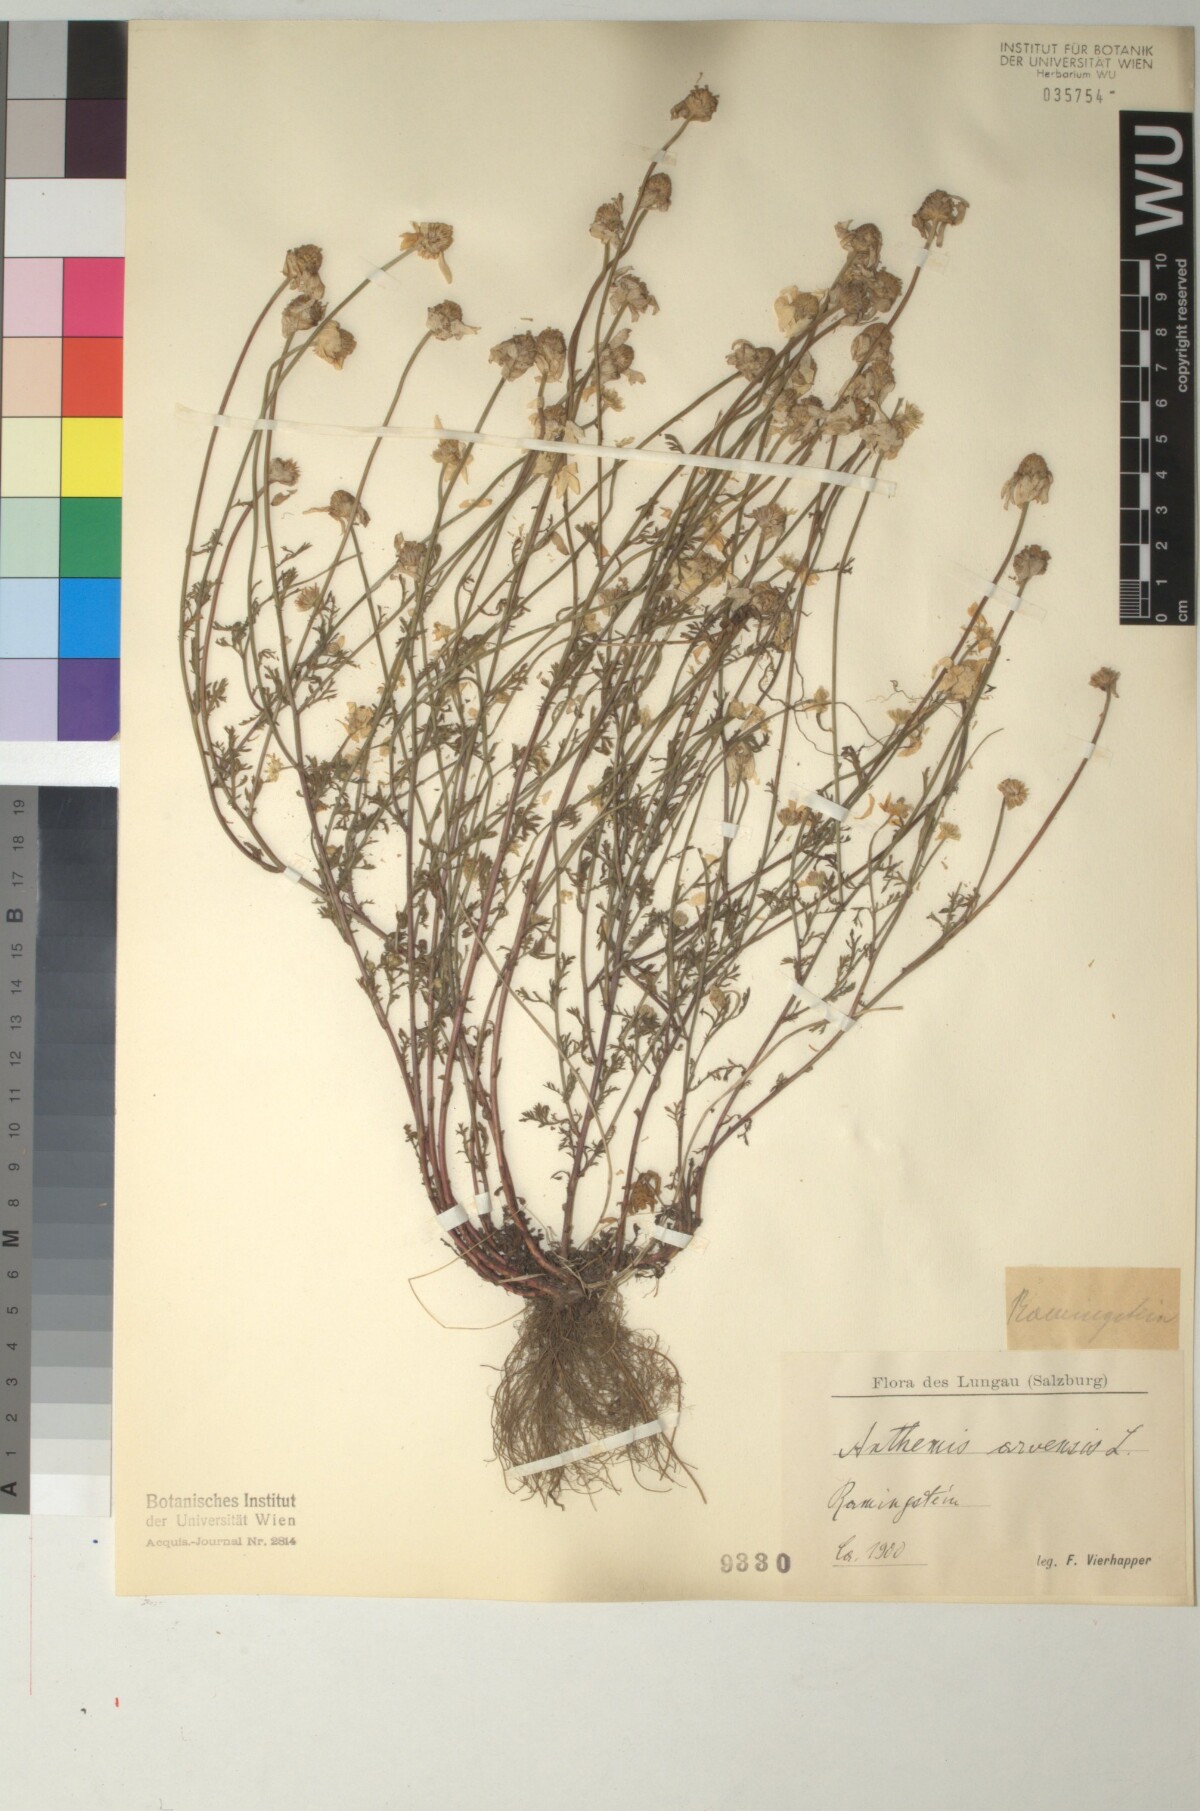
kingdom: Plantae
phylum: Tracheophyta
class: Magnoliopsida
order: Asterales
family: Asteraceae
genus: Anthemis
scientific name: Anthemis arvensis
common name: Corn chamomile
